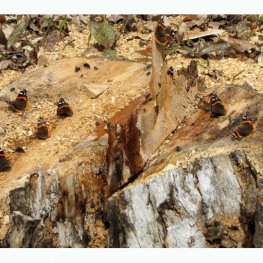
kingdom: Animalia
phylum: Arthropoda
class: Insecta
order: Lepidoptera
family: Nymphalidae
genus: Vanessa
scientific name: Vanessa atalanta
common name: Red Admiral
